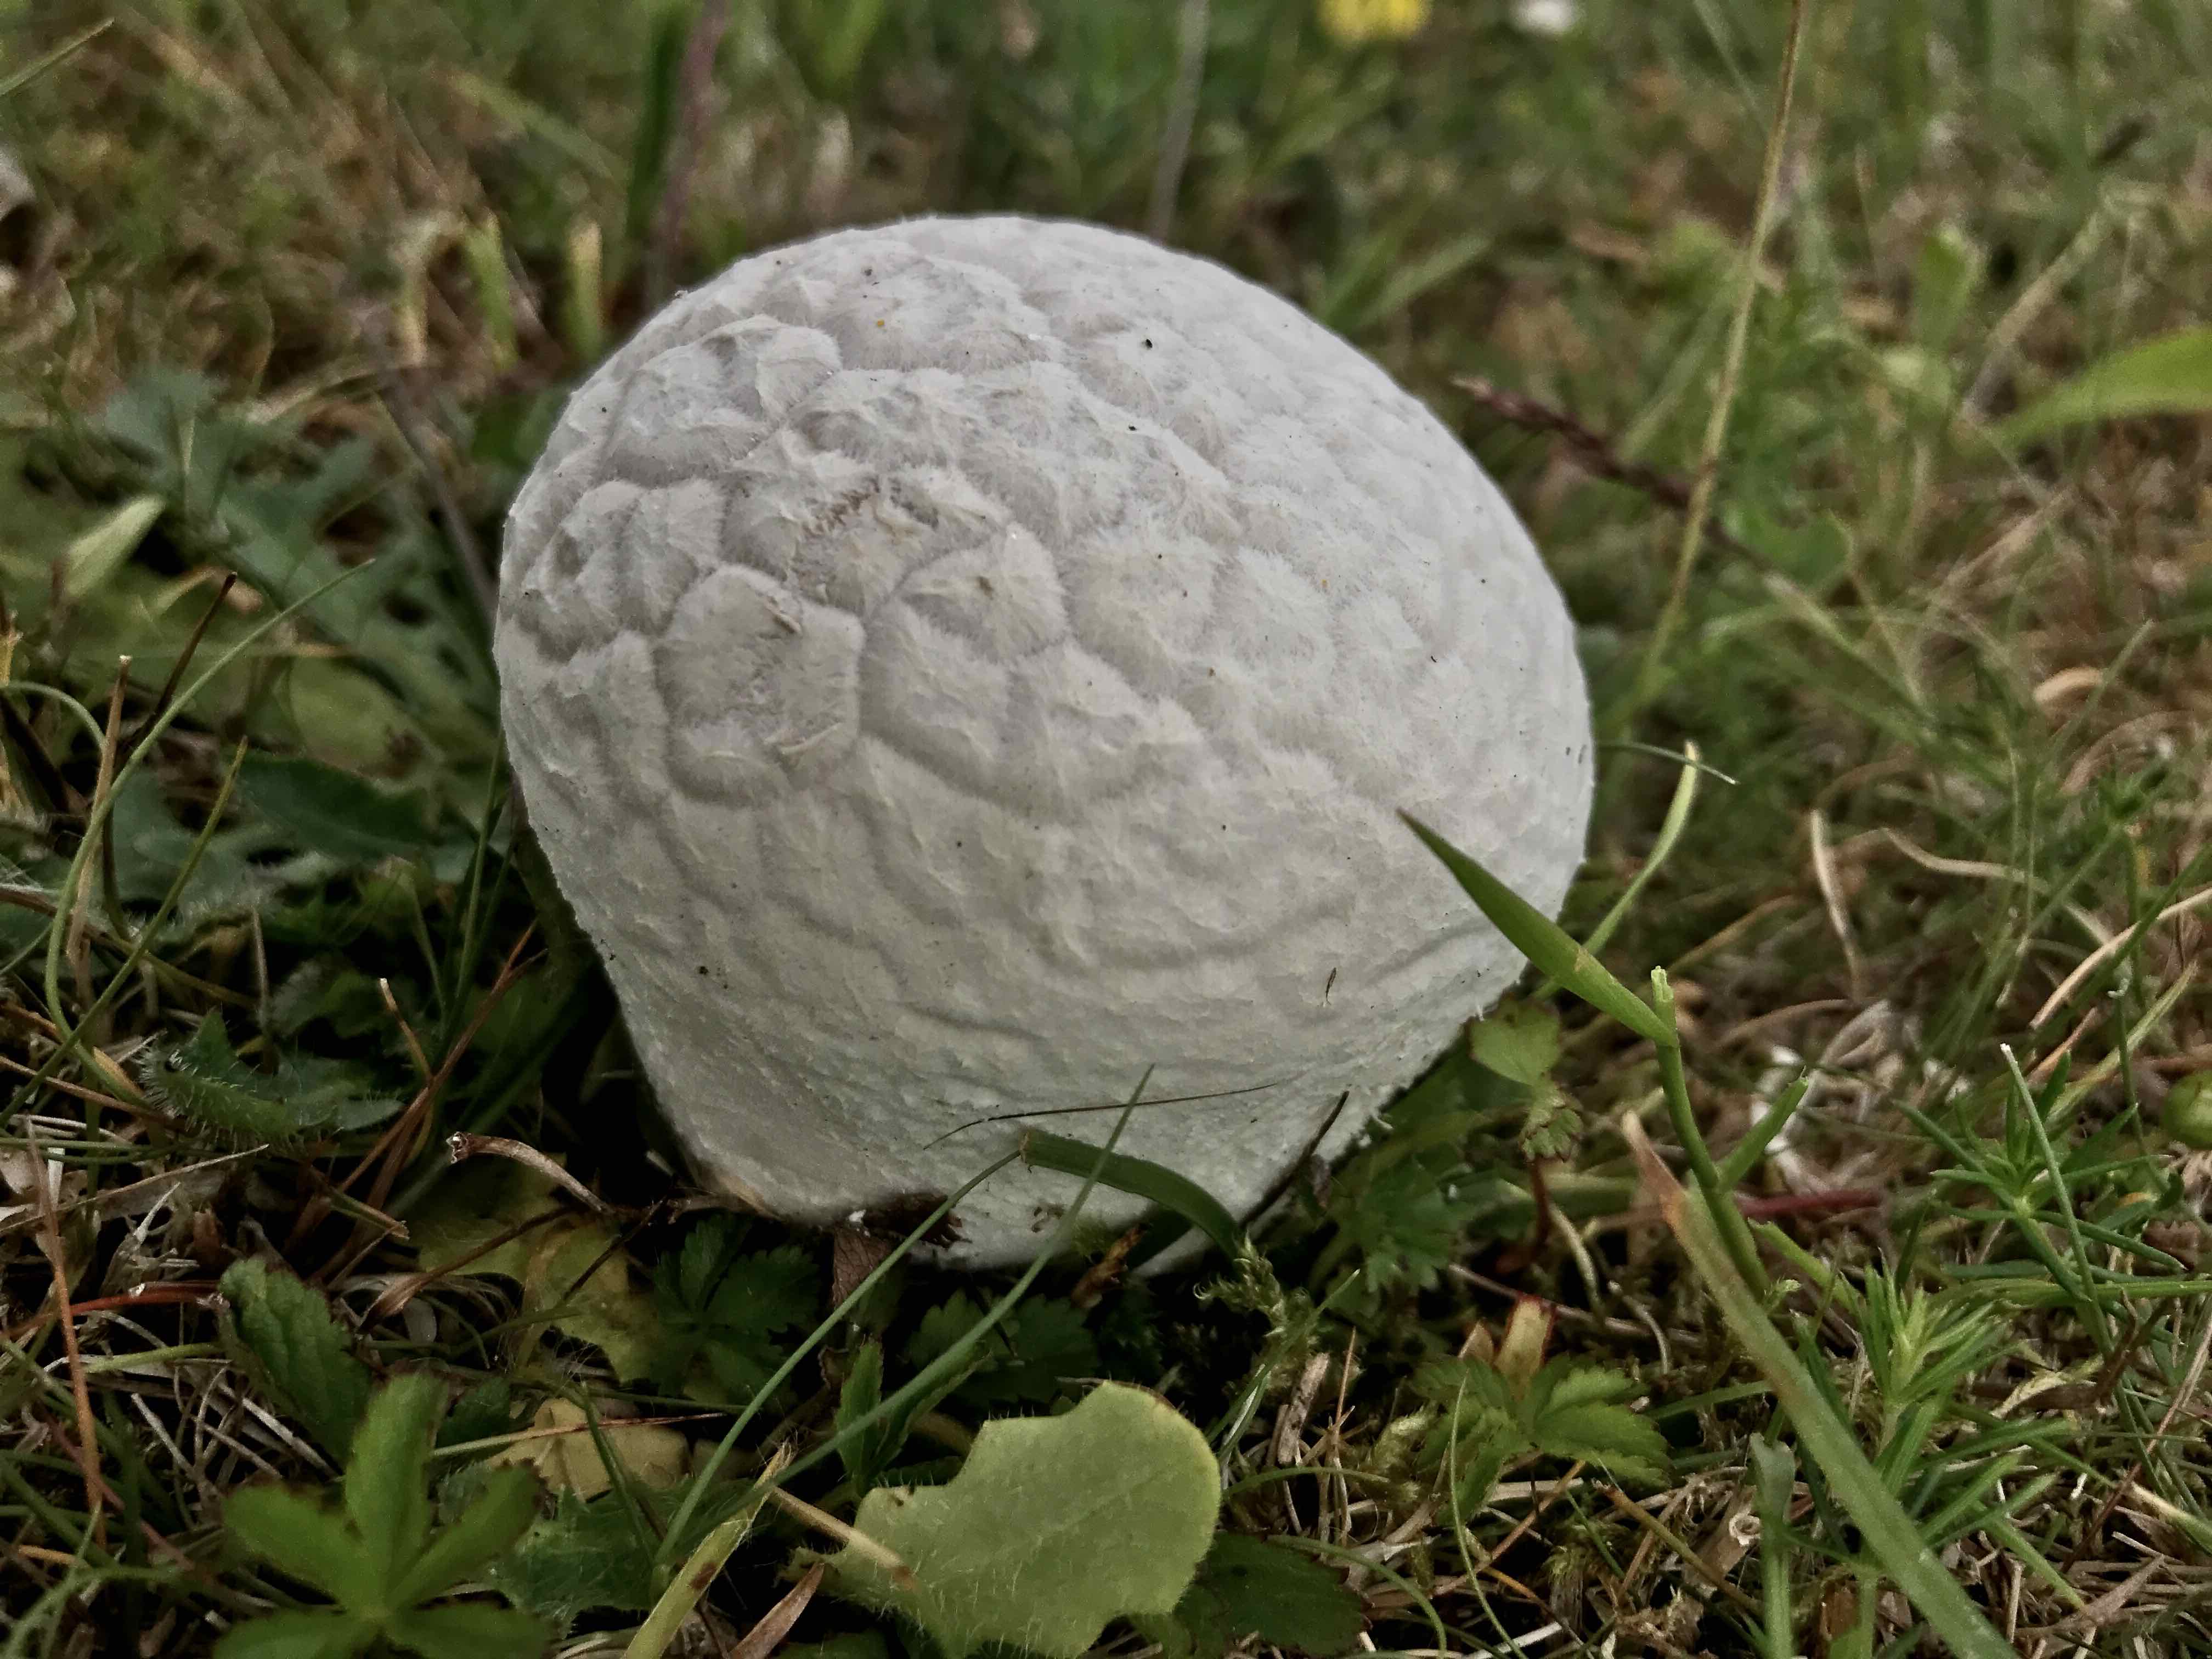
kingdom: Fungi
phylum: Basidiomycota
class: Agaricomycetes
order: Agaricales
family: Lycoperdaceae
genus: Bovistella
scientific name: Bovistella utriformis
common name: skællet støvbold
